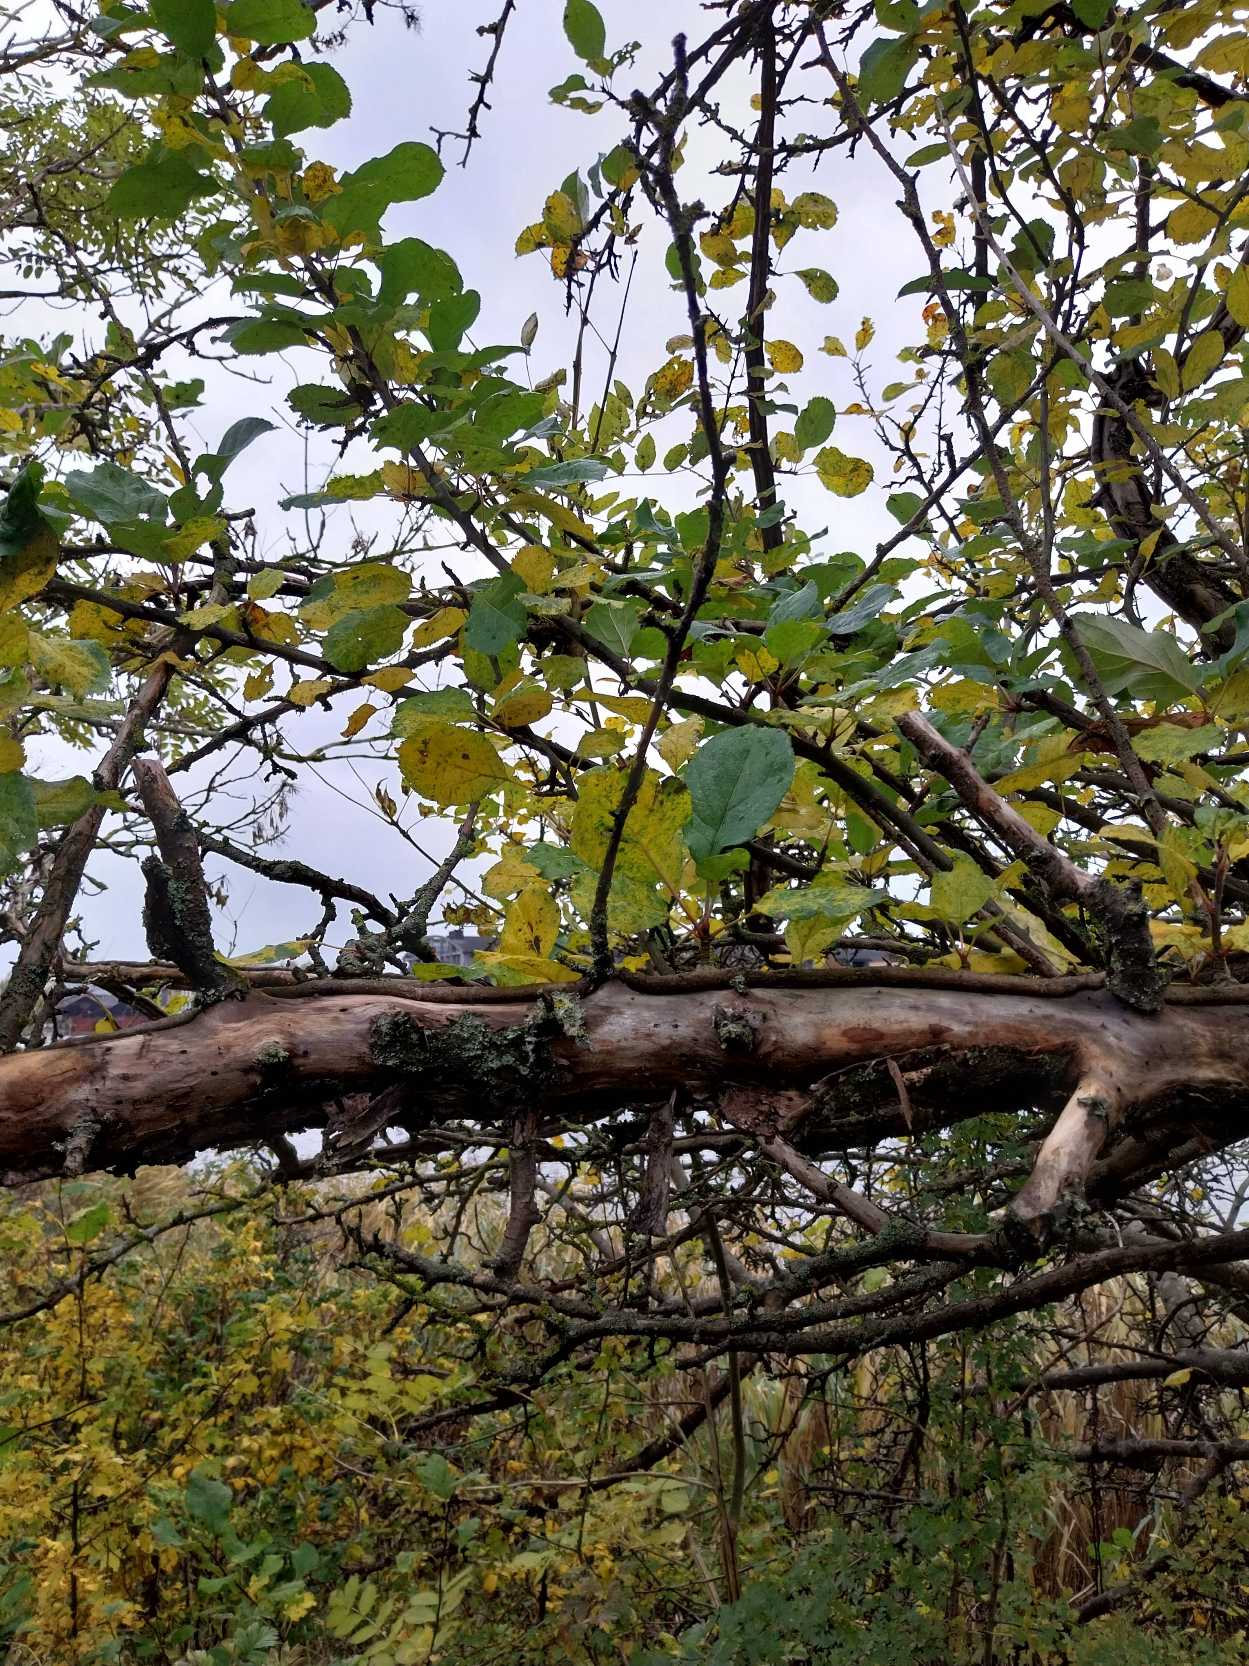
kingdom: Plantae
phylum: Tracheophyta
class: Magnoliopsida
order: Rosales
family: Rosaceae
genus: Malus
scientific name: Malus domestica
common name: Sød-æble
